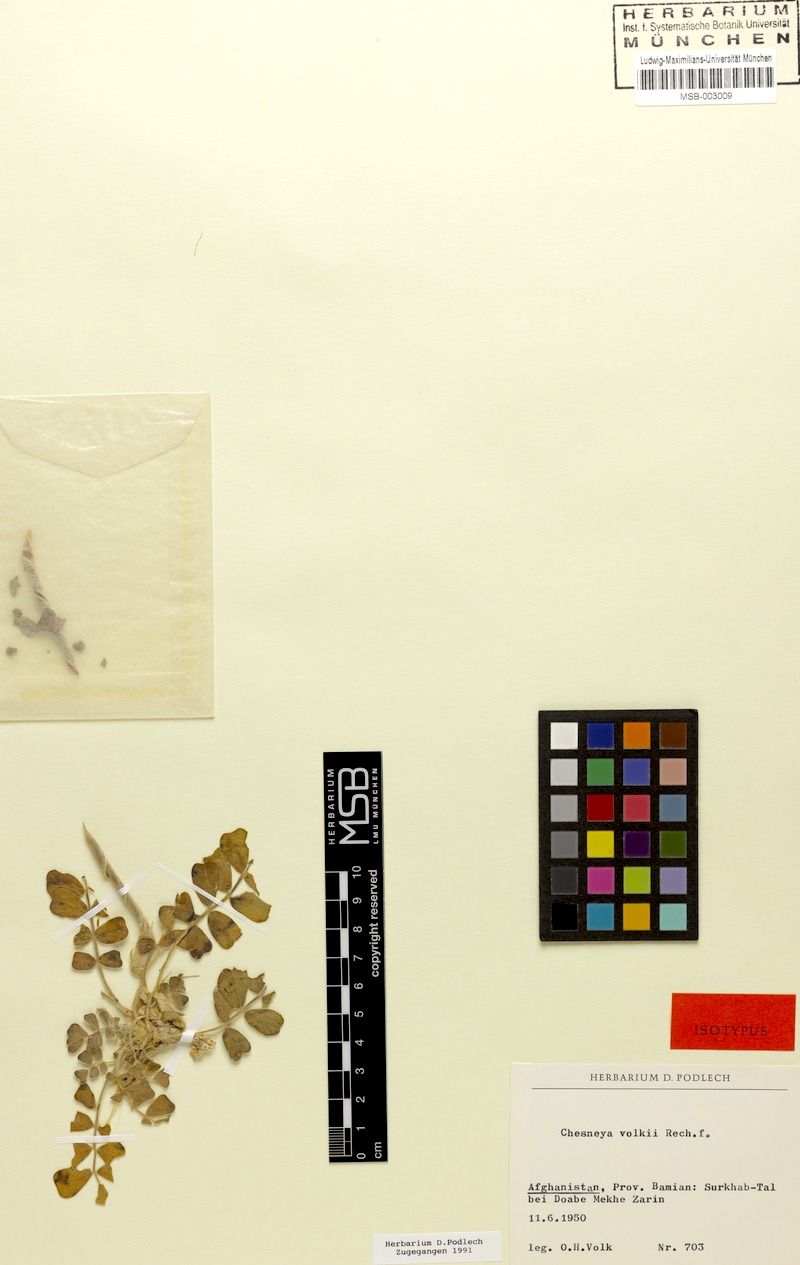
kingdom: Plantae
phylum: Tracheophyta
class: Magnoliopsida
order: Fabales
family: Fabaceae
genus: Chesneya
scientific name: Chesneya volkii
